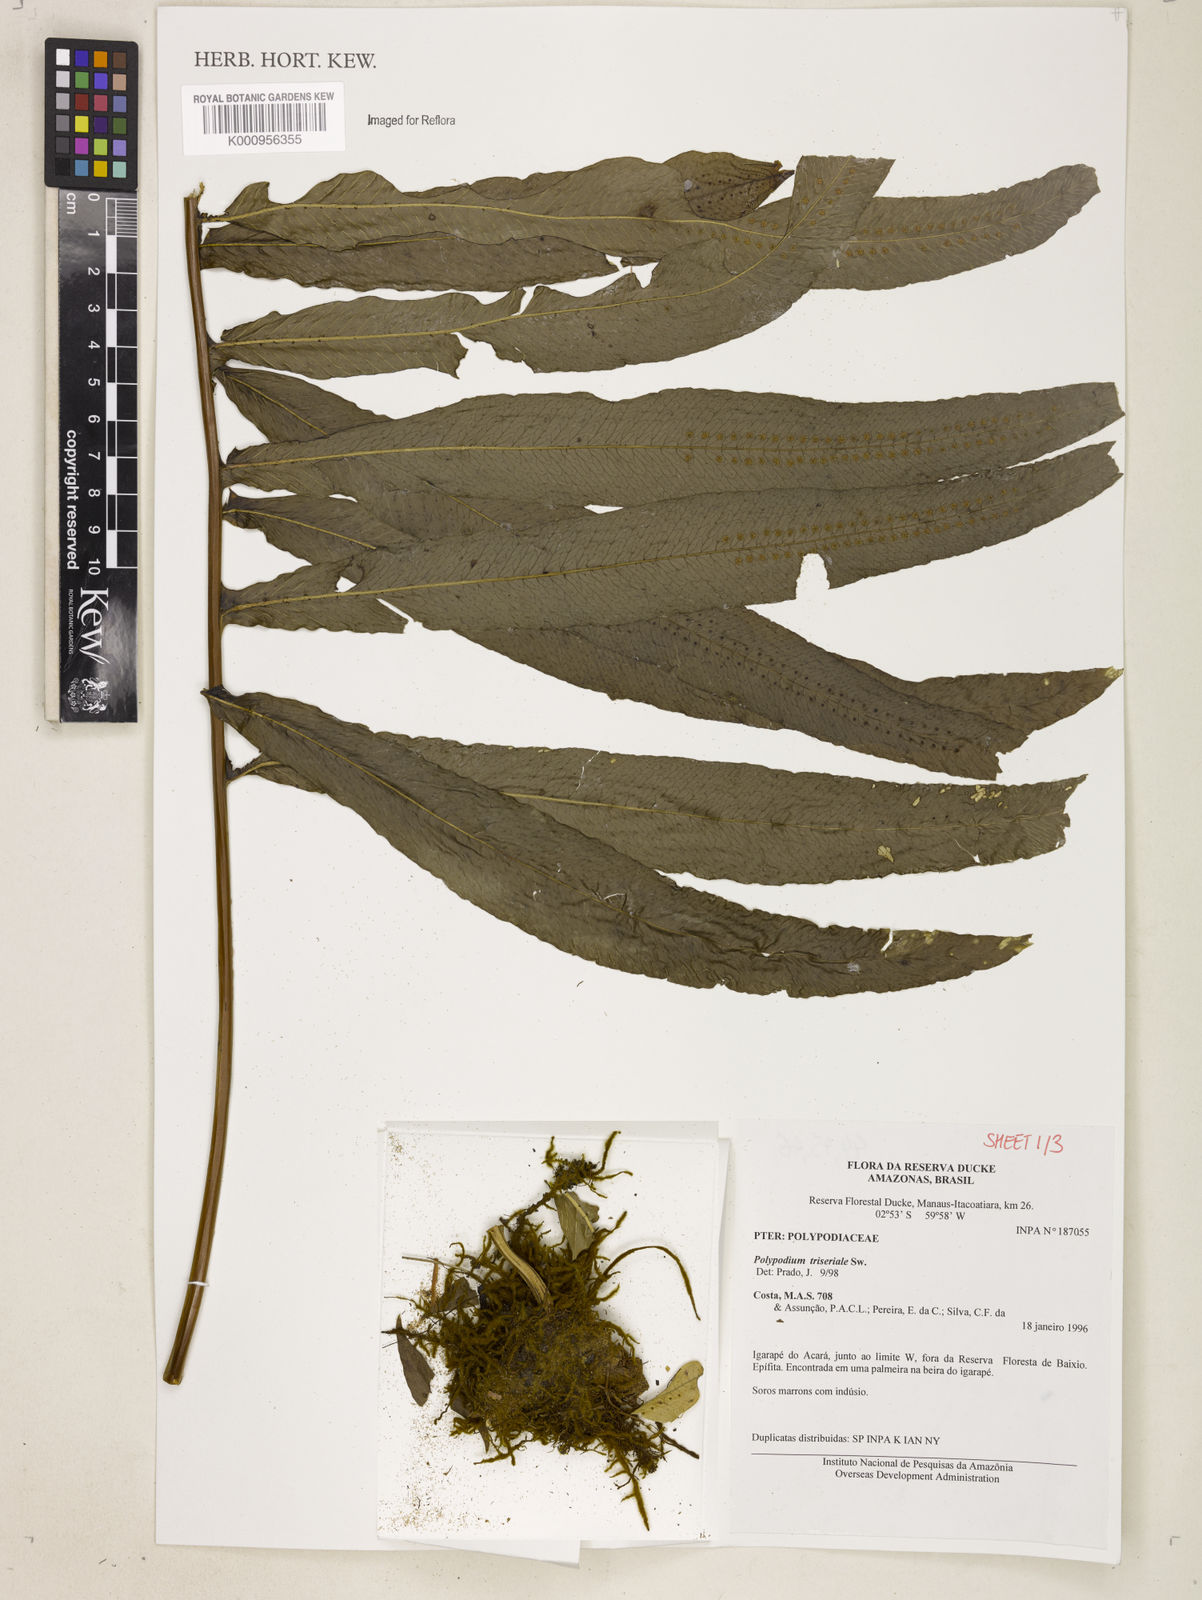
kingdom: Plantae
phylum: Tracheophyta
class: Polypodiopsida
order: Polypodiales
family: Polypodiaceae
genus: Serpocaulon
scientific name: Serpocaulon triseriale
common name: Angle-vein fern
